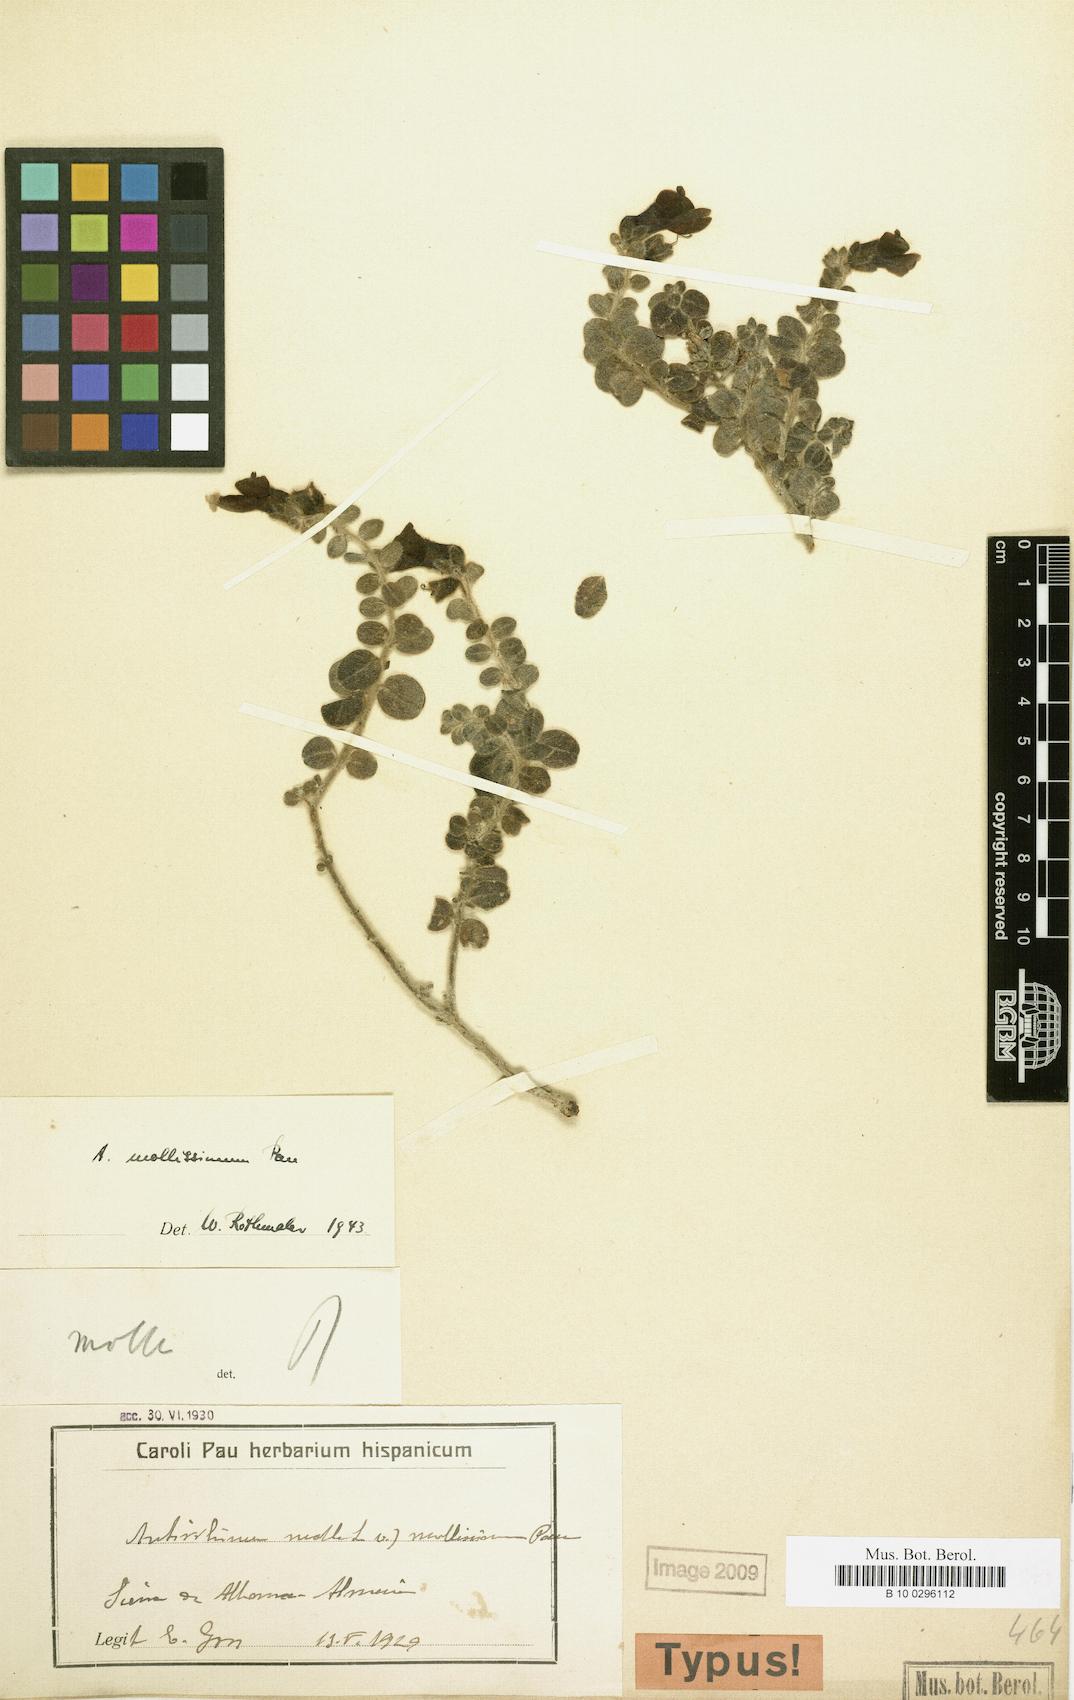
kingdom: Plantae
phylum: Tracheophyta
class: Magnoliopsida
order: Lamiales
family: Plantaginaceae
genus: Antirrhinum
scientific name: Antirrhinum mollissimum
